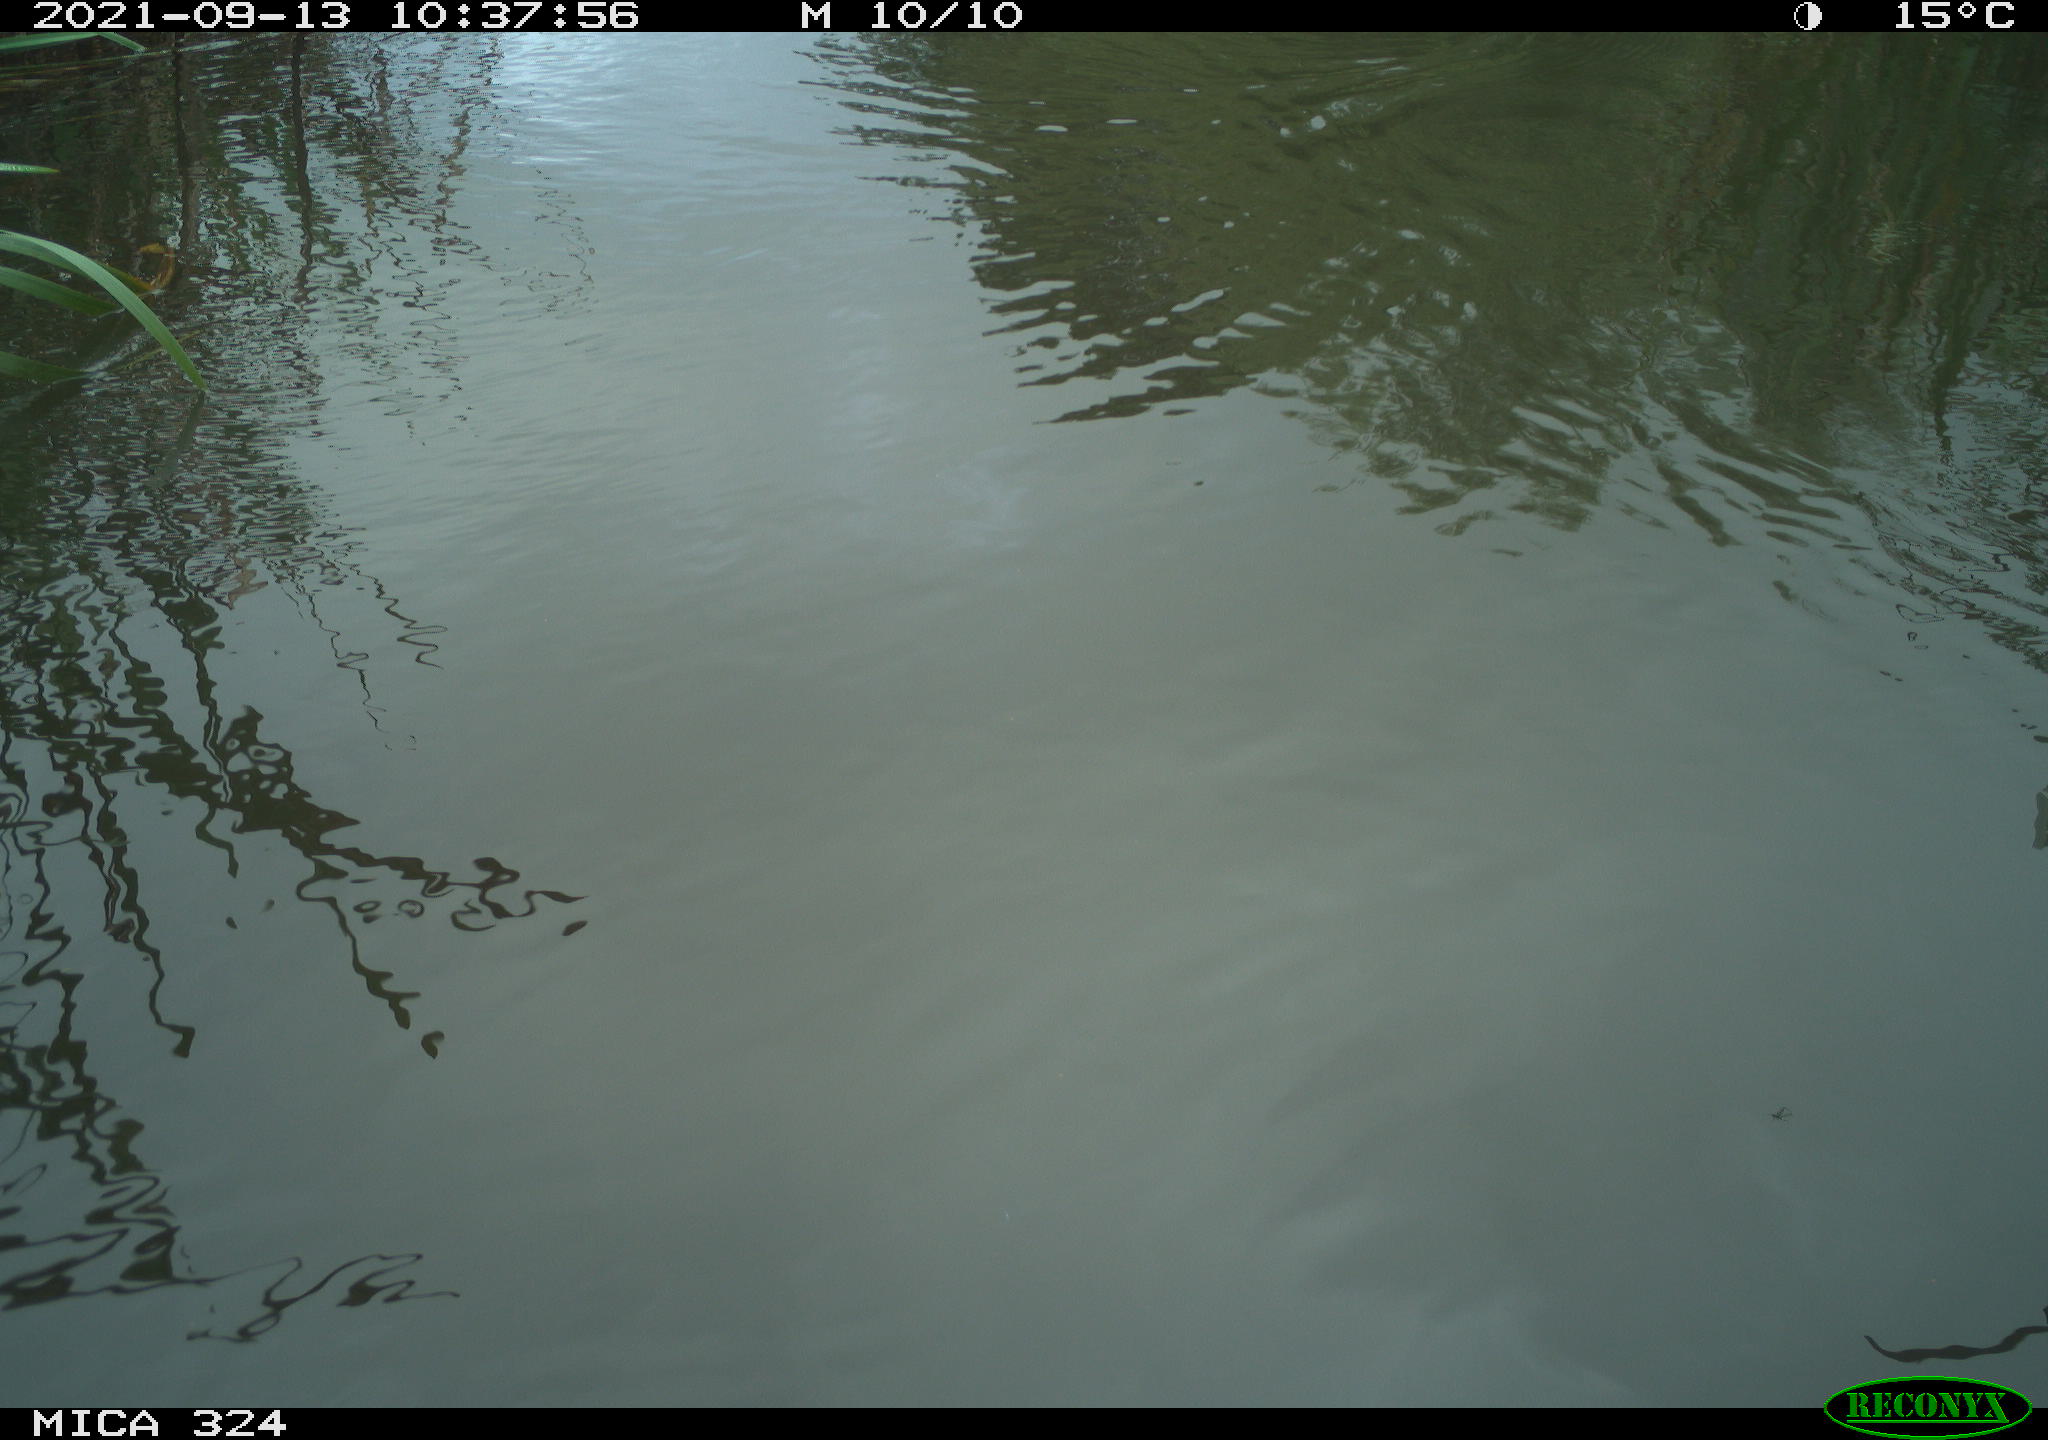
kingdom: Animalia
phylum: Chordata
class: Aves
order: Gruiformes
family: Rallidae
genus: Gallinula
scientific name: Gallinula chloropus
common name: Common moorhen
